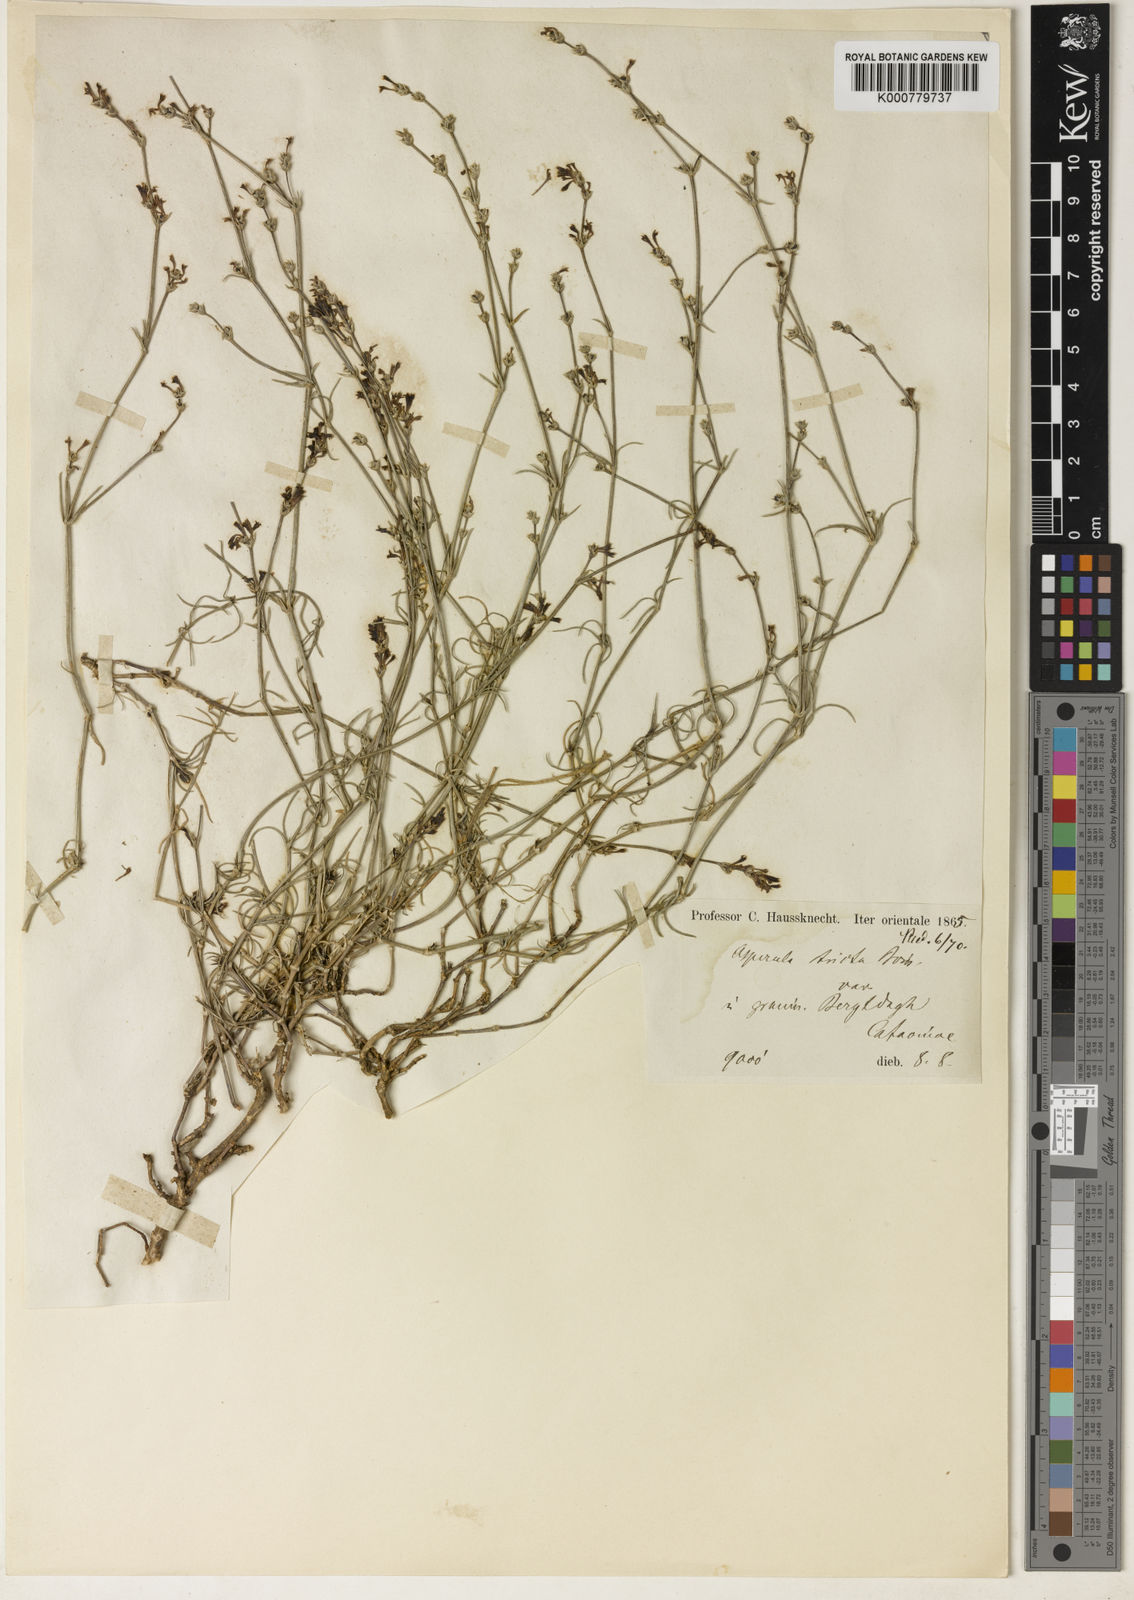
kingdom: Plantae
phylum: Tracheophyta
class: Magnoliopsida
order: Gentianales
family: Rubiaceae
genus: Cynanchica
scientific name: Cynanchica stricta
